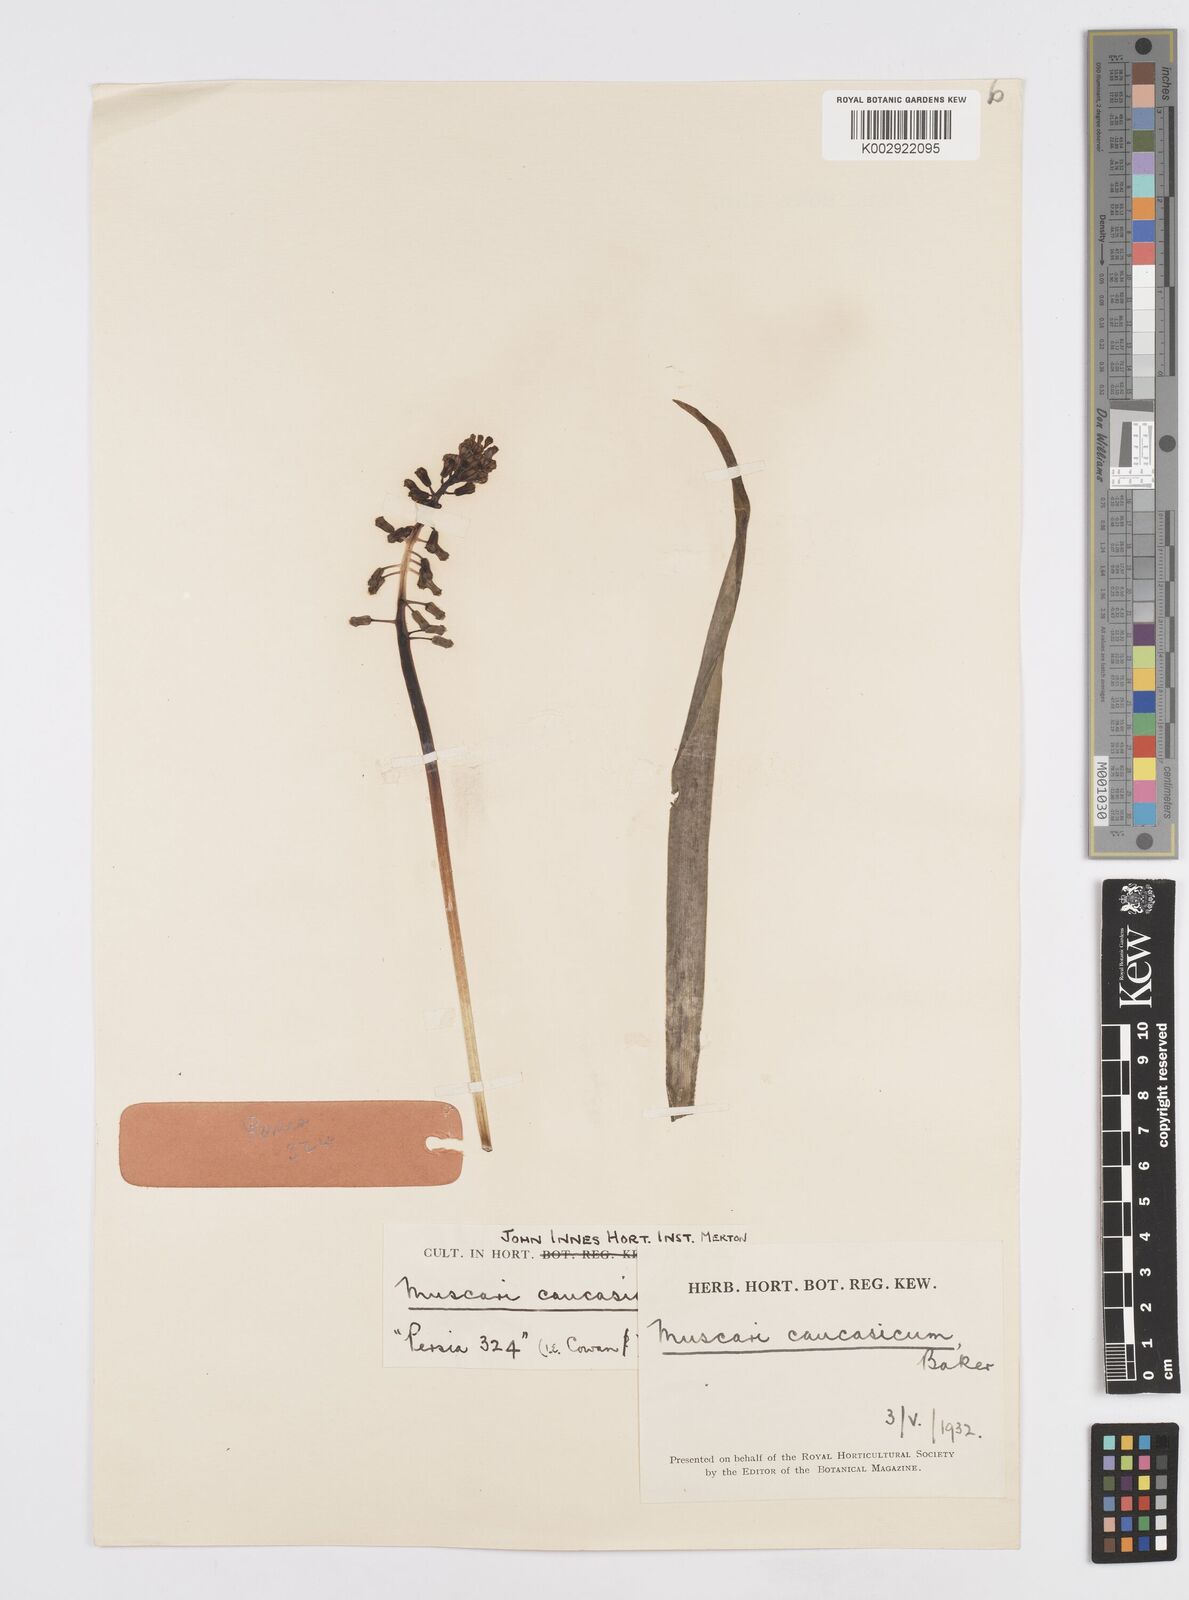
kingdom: Plantae
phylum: Tracheophyta
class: Liliopsida
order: Asparagales
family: Asparagaceae
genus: Muscari
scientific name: Muscari caucasicum
